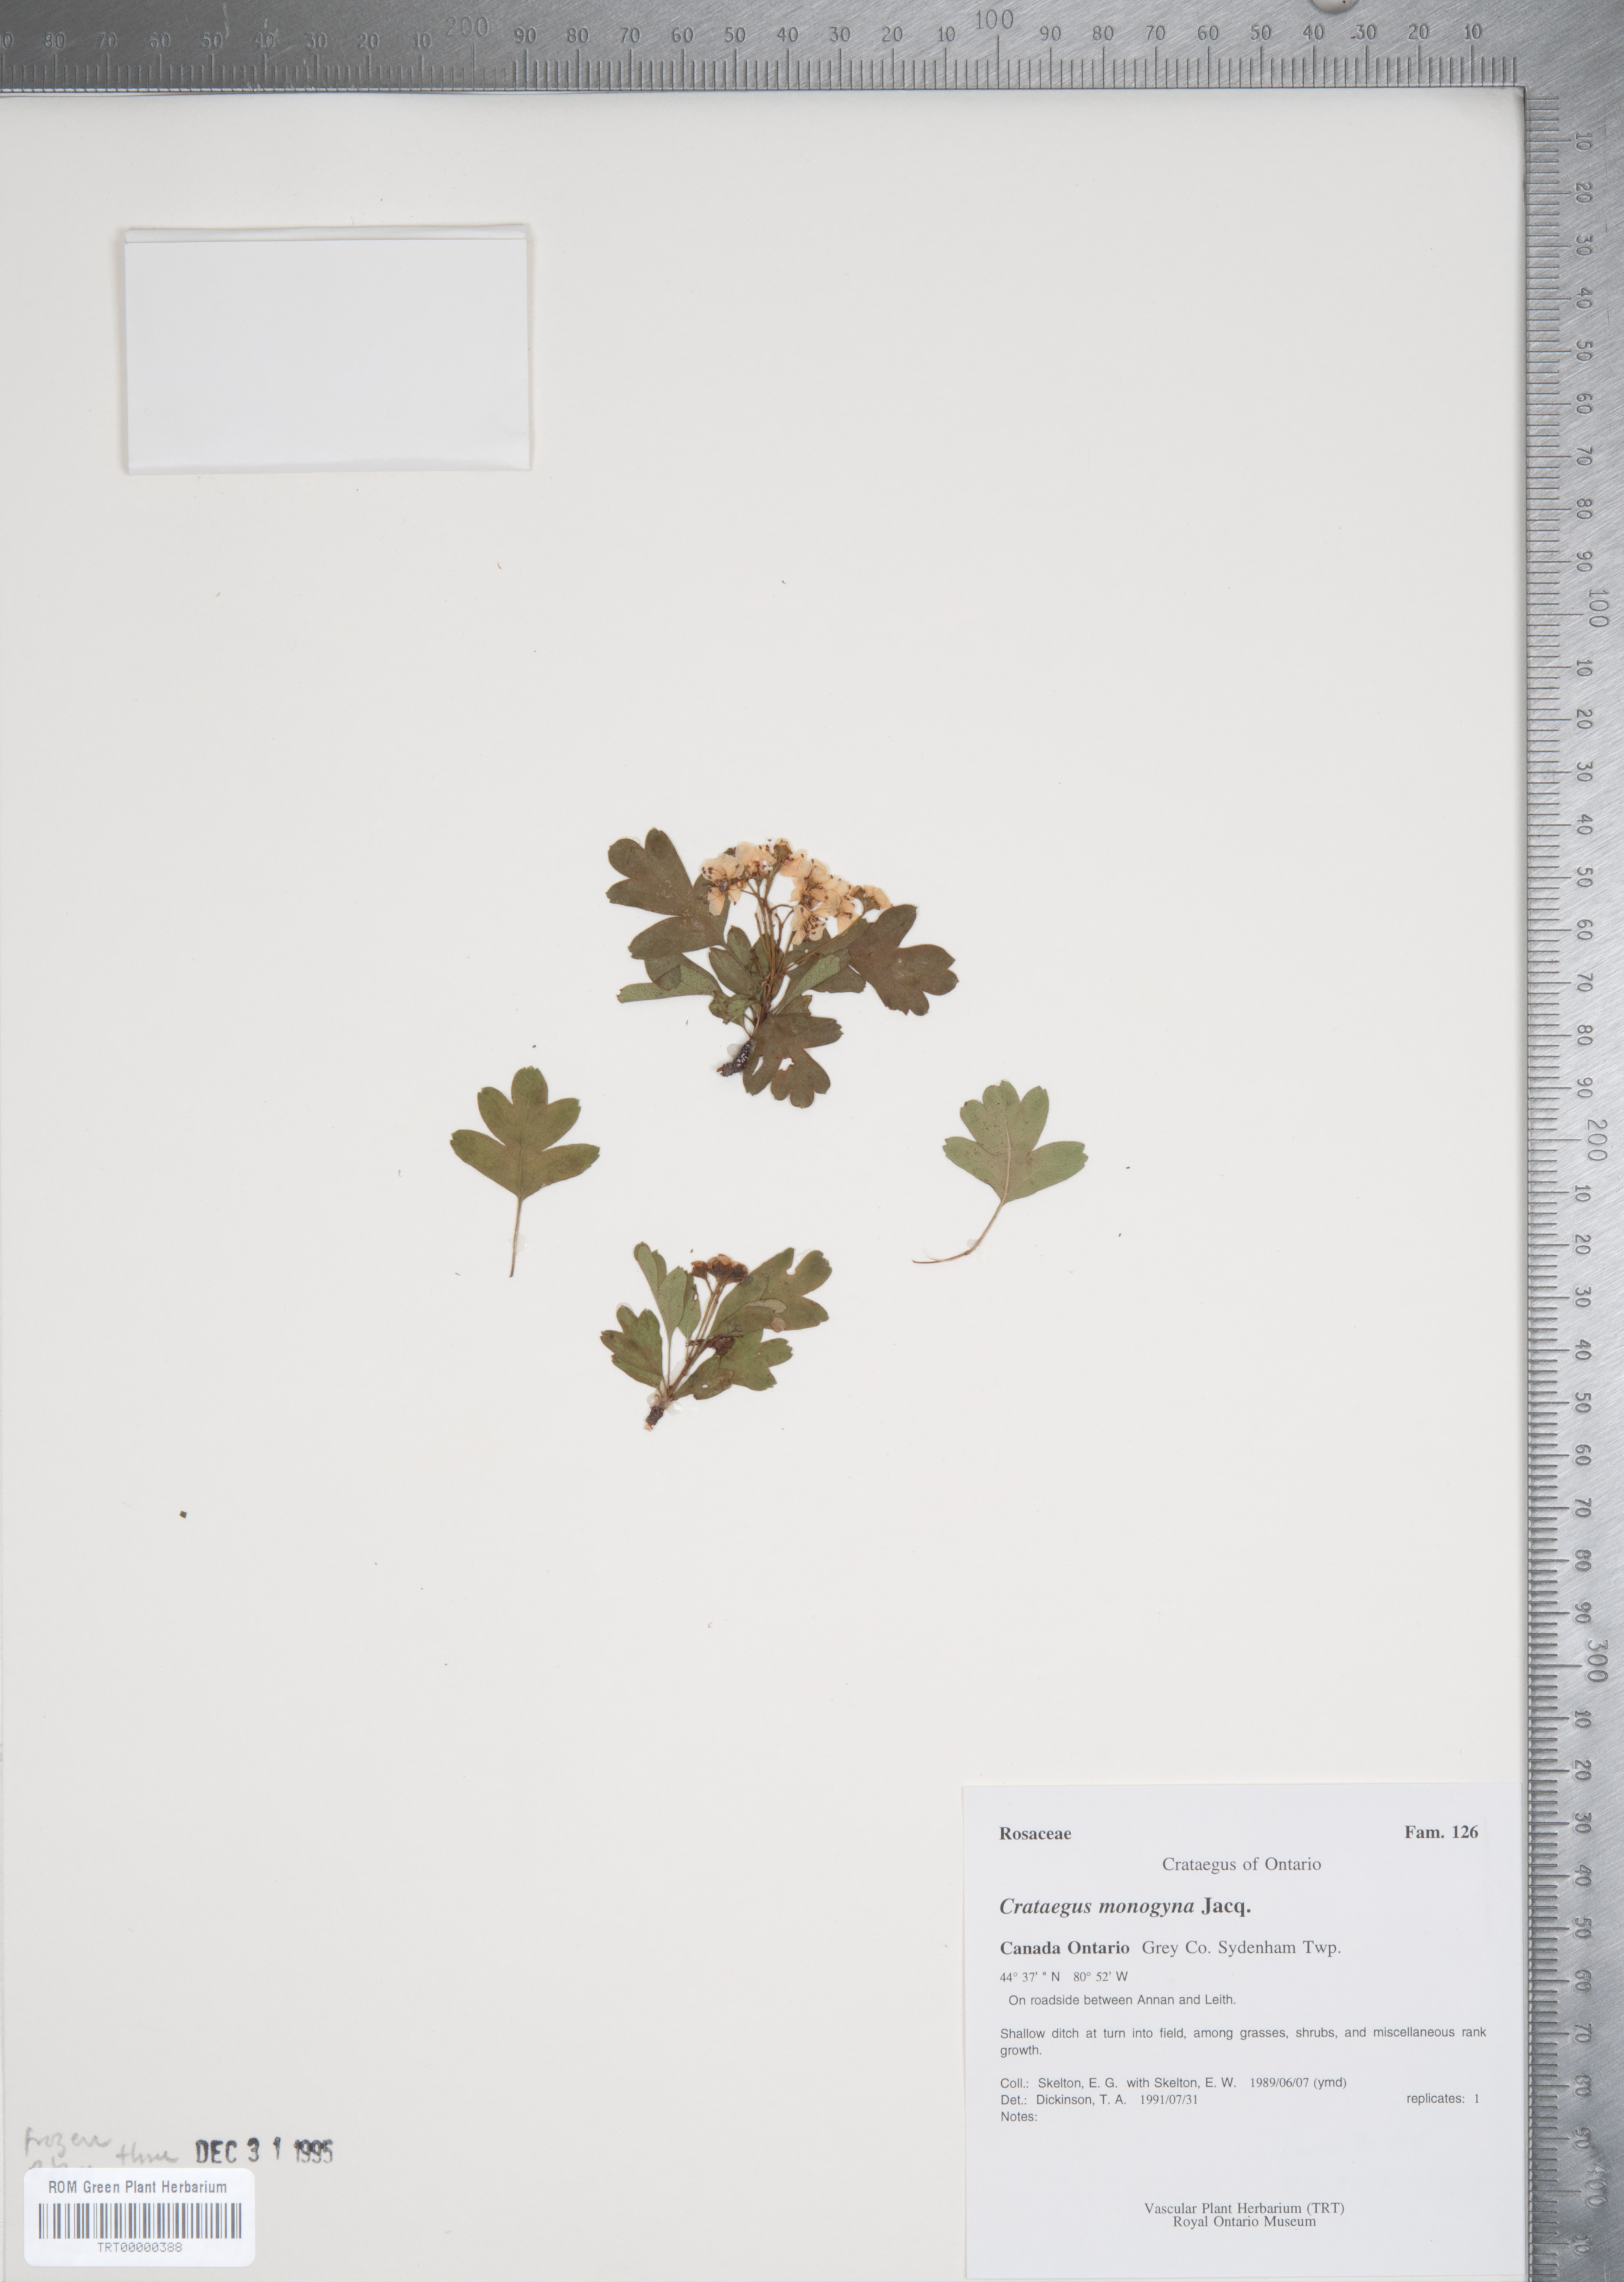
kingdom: Plantae
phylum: Tracheophyta
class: Magnoliopsida
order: Rosales
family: Rosaceae
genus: Crataegus
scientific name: Crataegus monogyna
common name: Hawthorn
